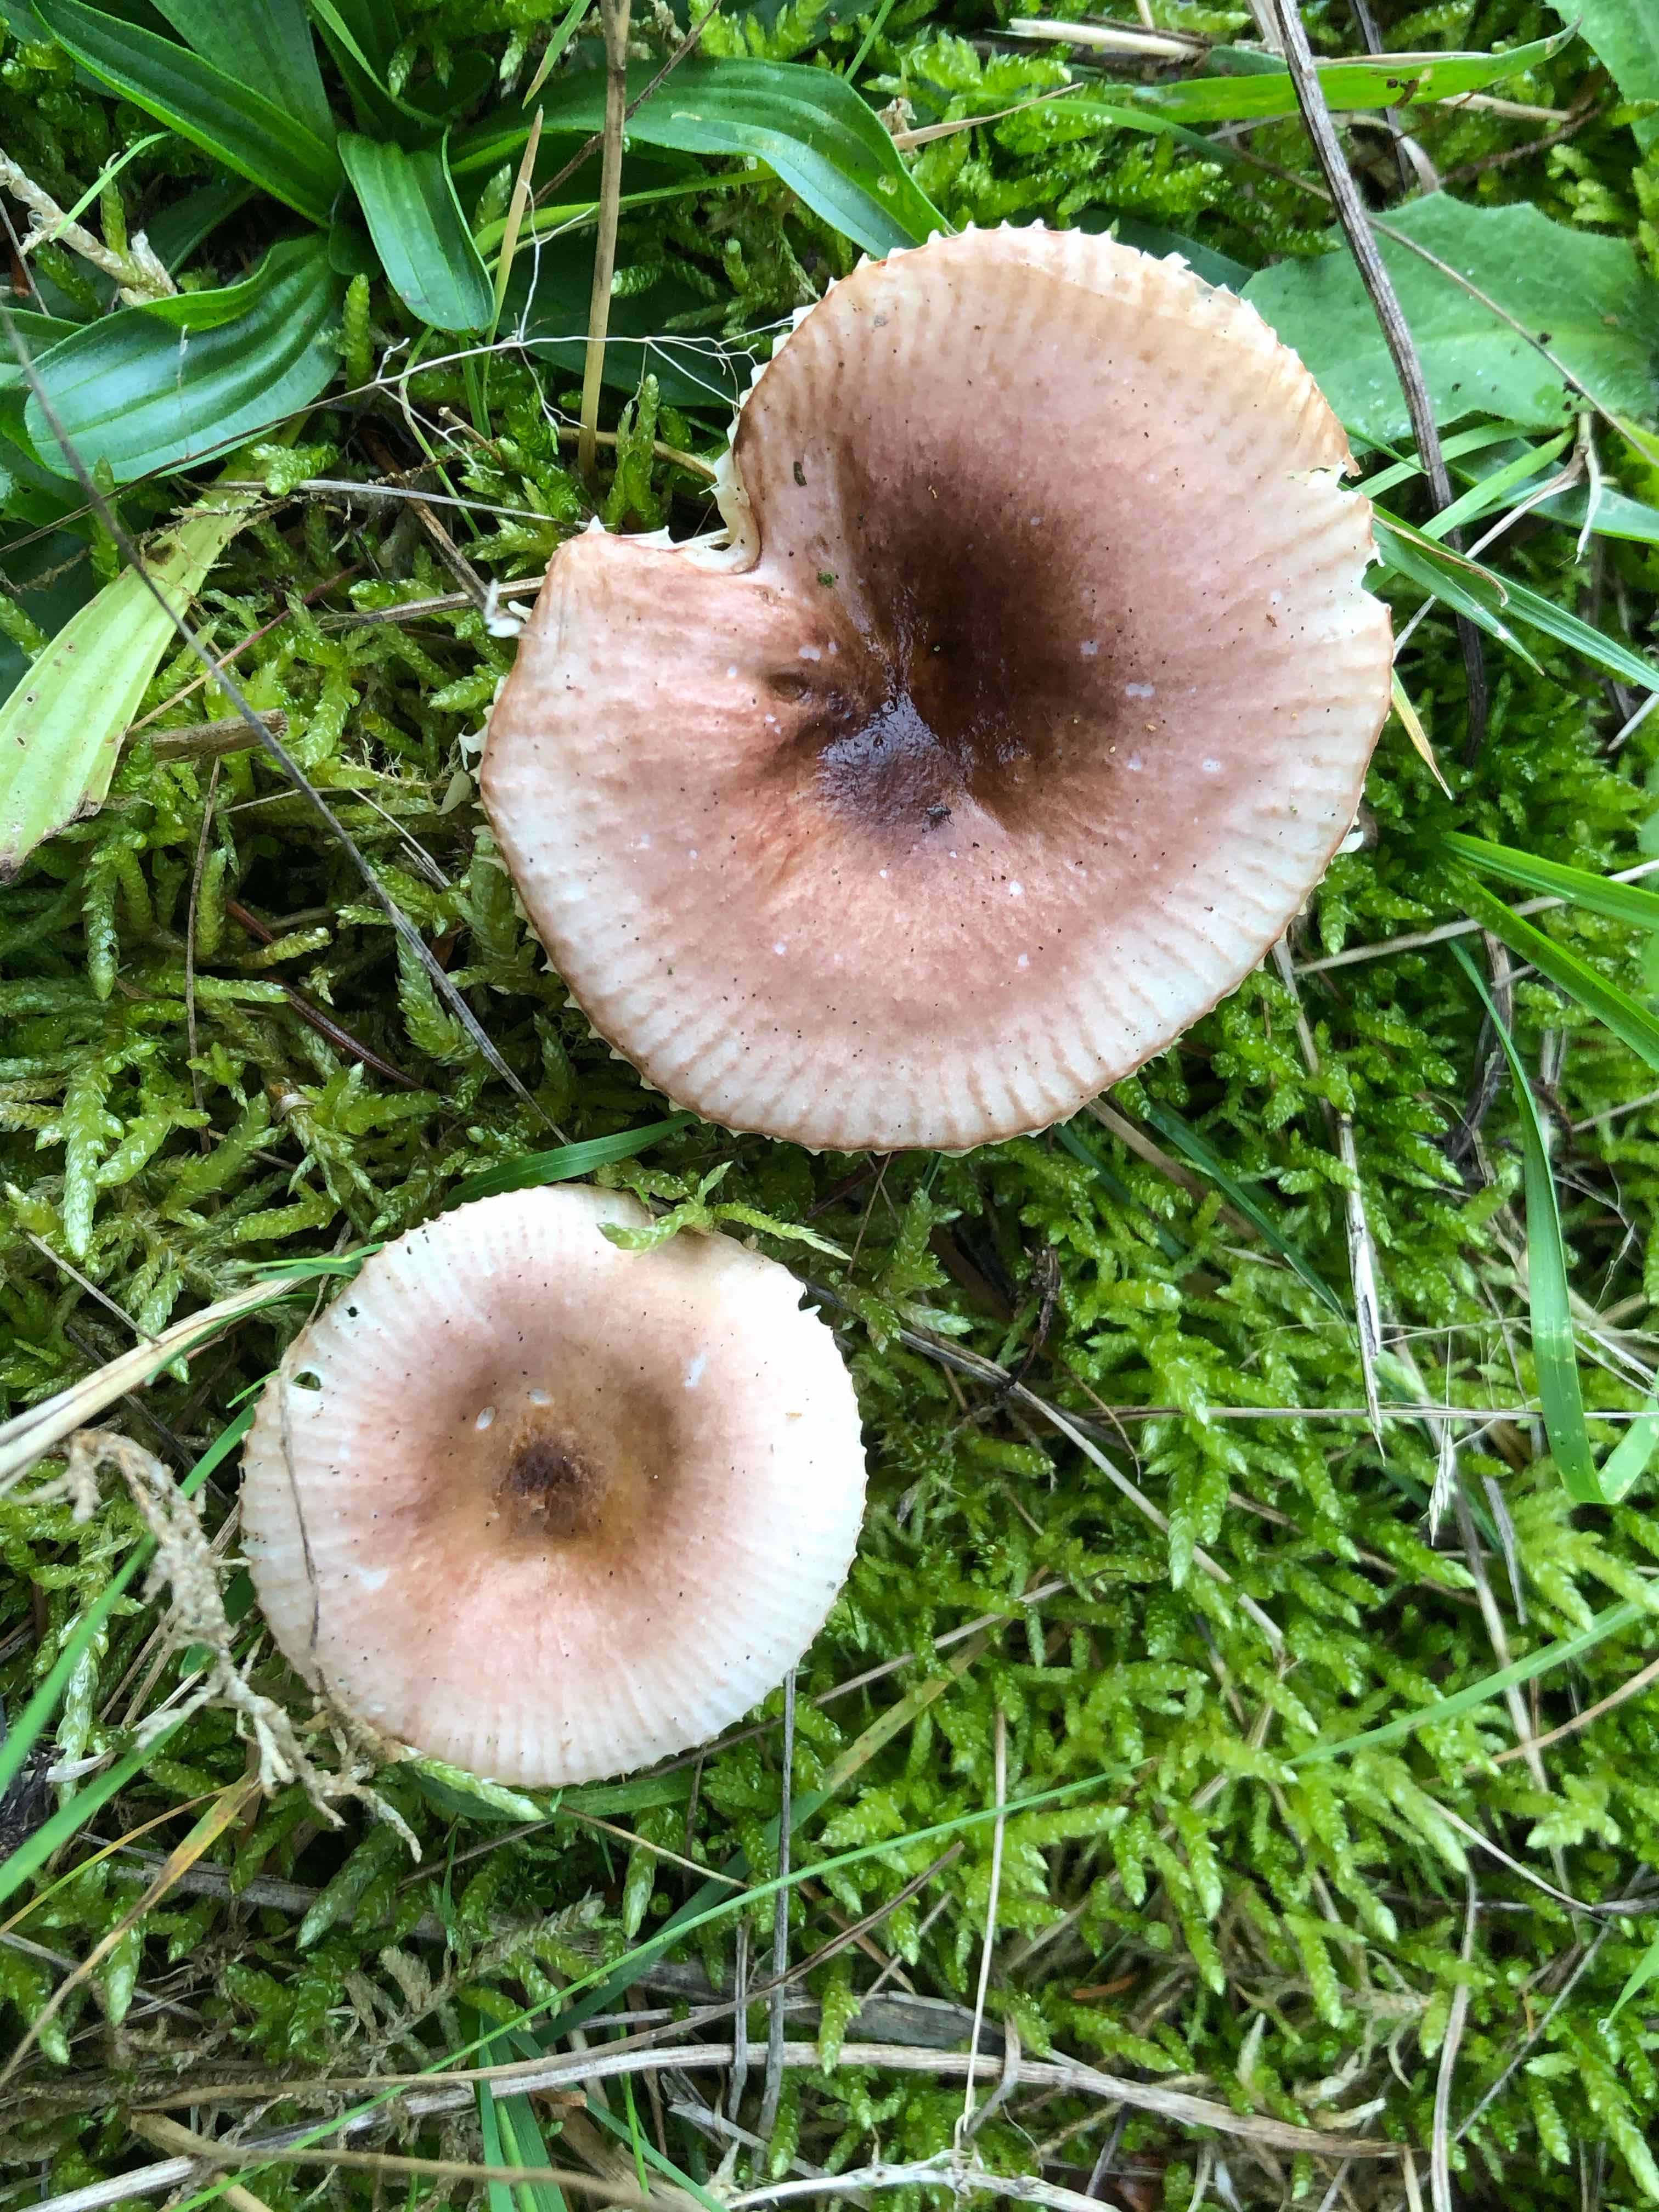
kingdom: Fungi
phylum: Basidiomycota
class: Agaricomycetes
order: Russulales
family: Russulaceae
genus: Russula
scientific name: Russula nauseosa
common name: spinkel skørhat
